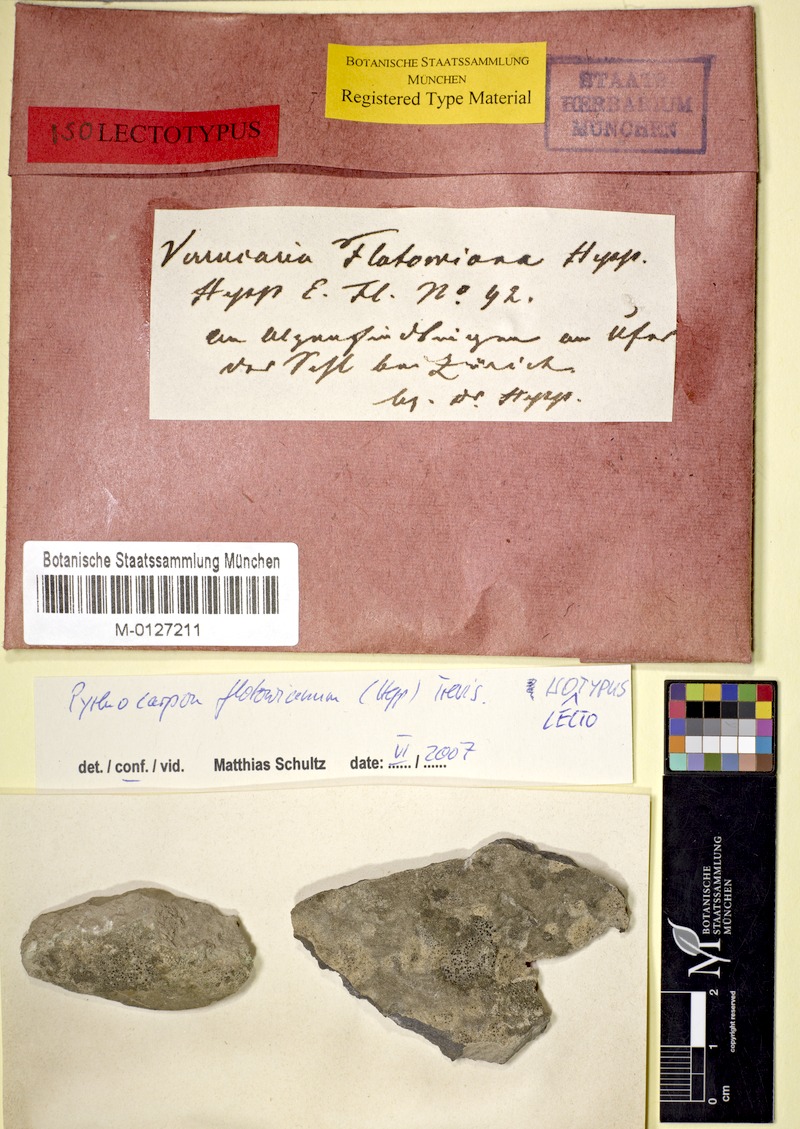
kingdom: Fungi
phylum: Ascomycota
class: Lichinomycetes
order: Lichinales
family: Lichinaceae
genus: Pyrenocarpon
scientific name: Pyrenocarpon thelostomum
